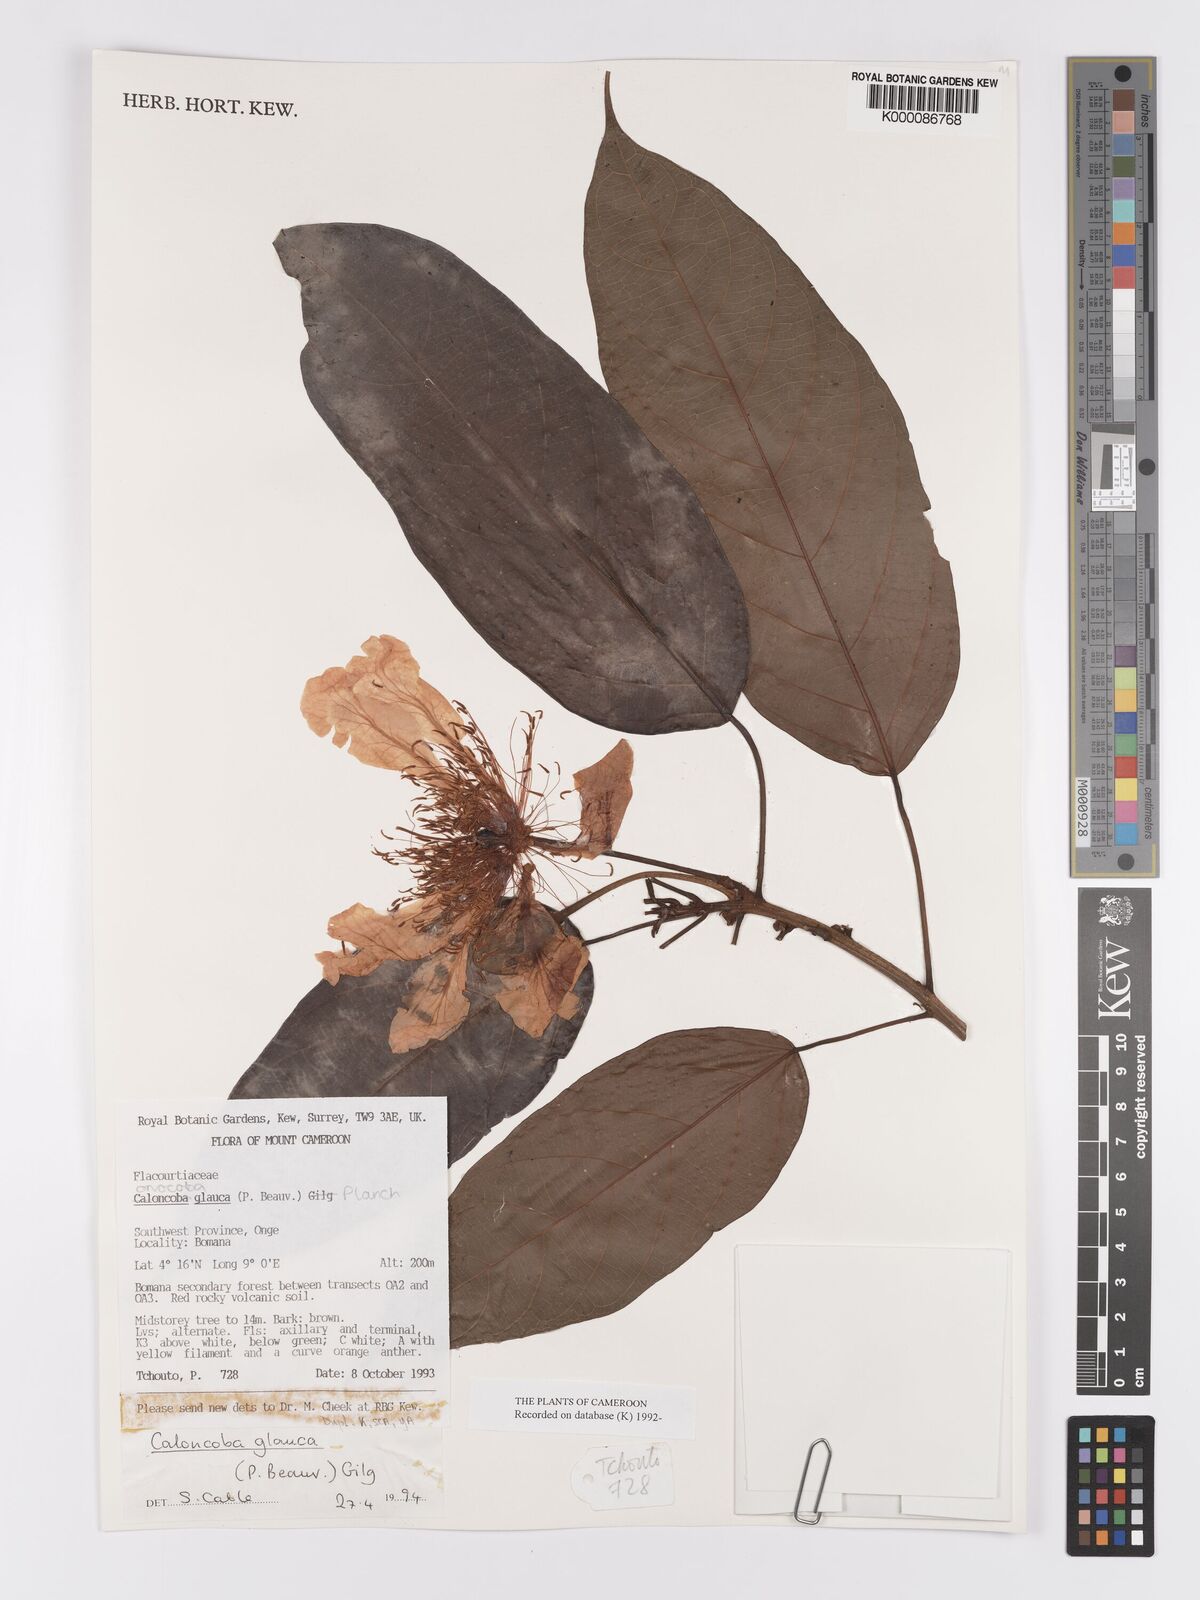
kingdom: Plantae
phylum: Tracheophyta
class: Magnoliopsida
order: Malpighiales
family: Achariaceae
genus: Caloncoba
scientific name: Caloncoba glauca
